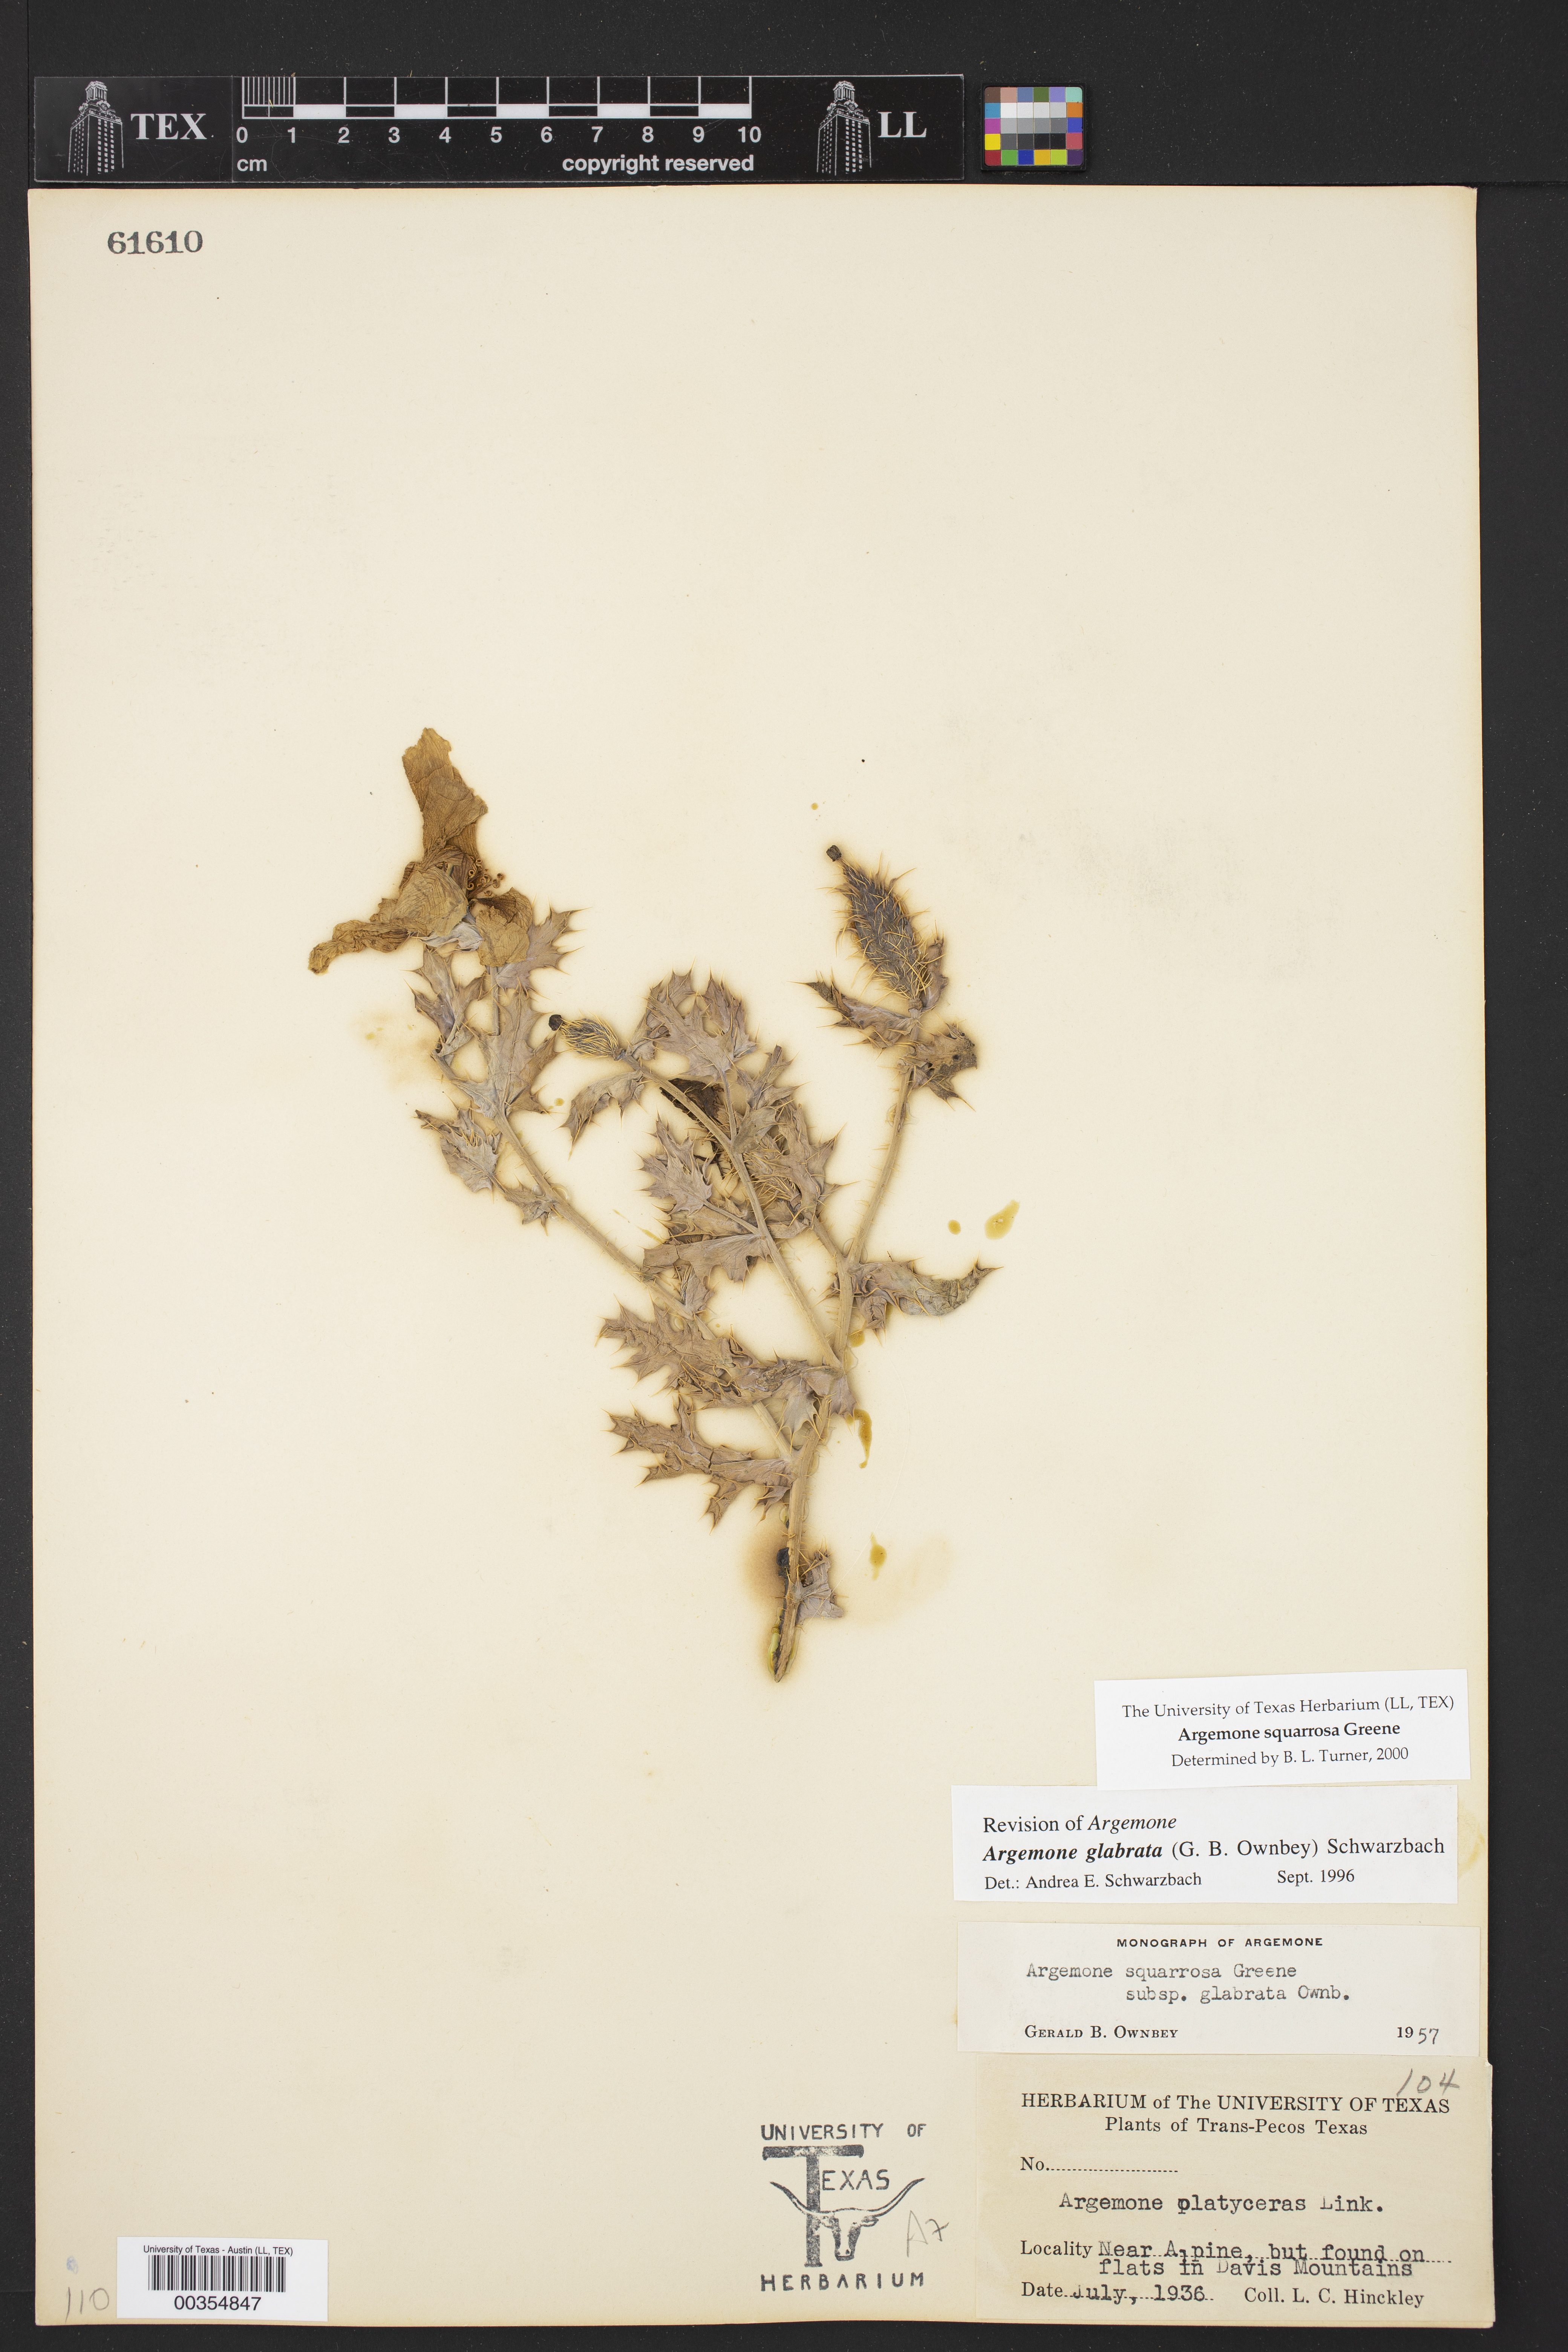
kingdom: Plantae
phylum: Tracheophyta
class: Magnoliopsida
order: Ranunculales
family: Papaveraceae
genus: Argemone
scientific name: Argemone squarrosa
